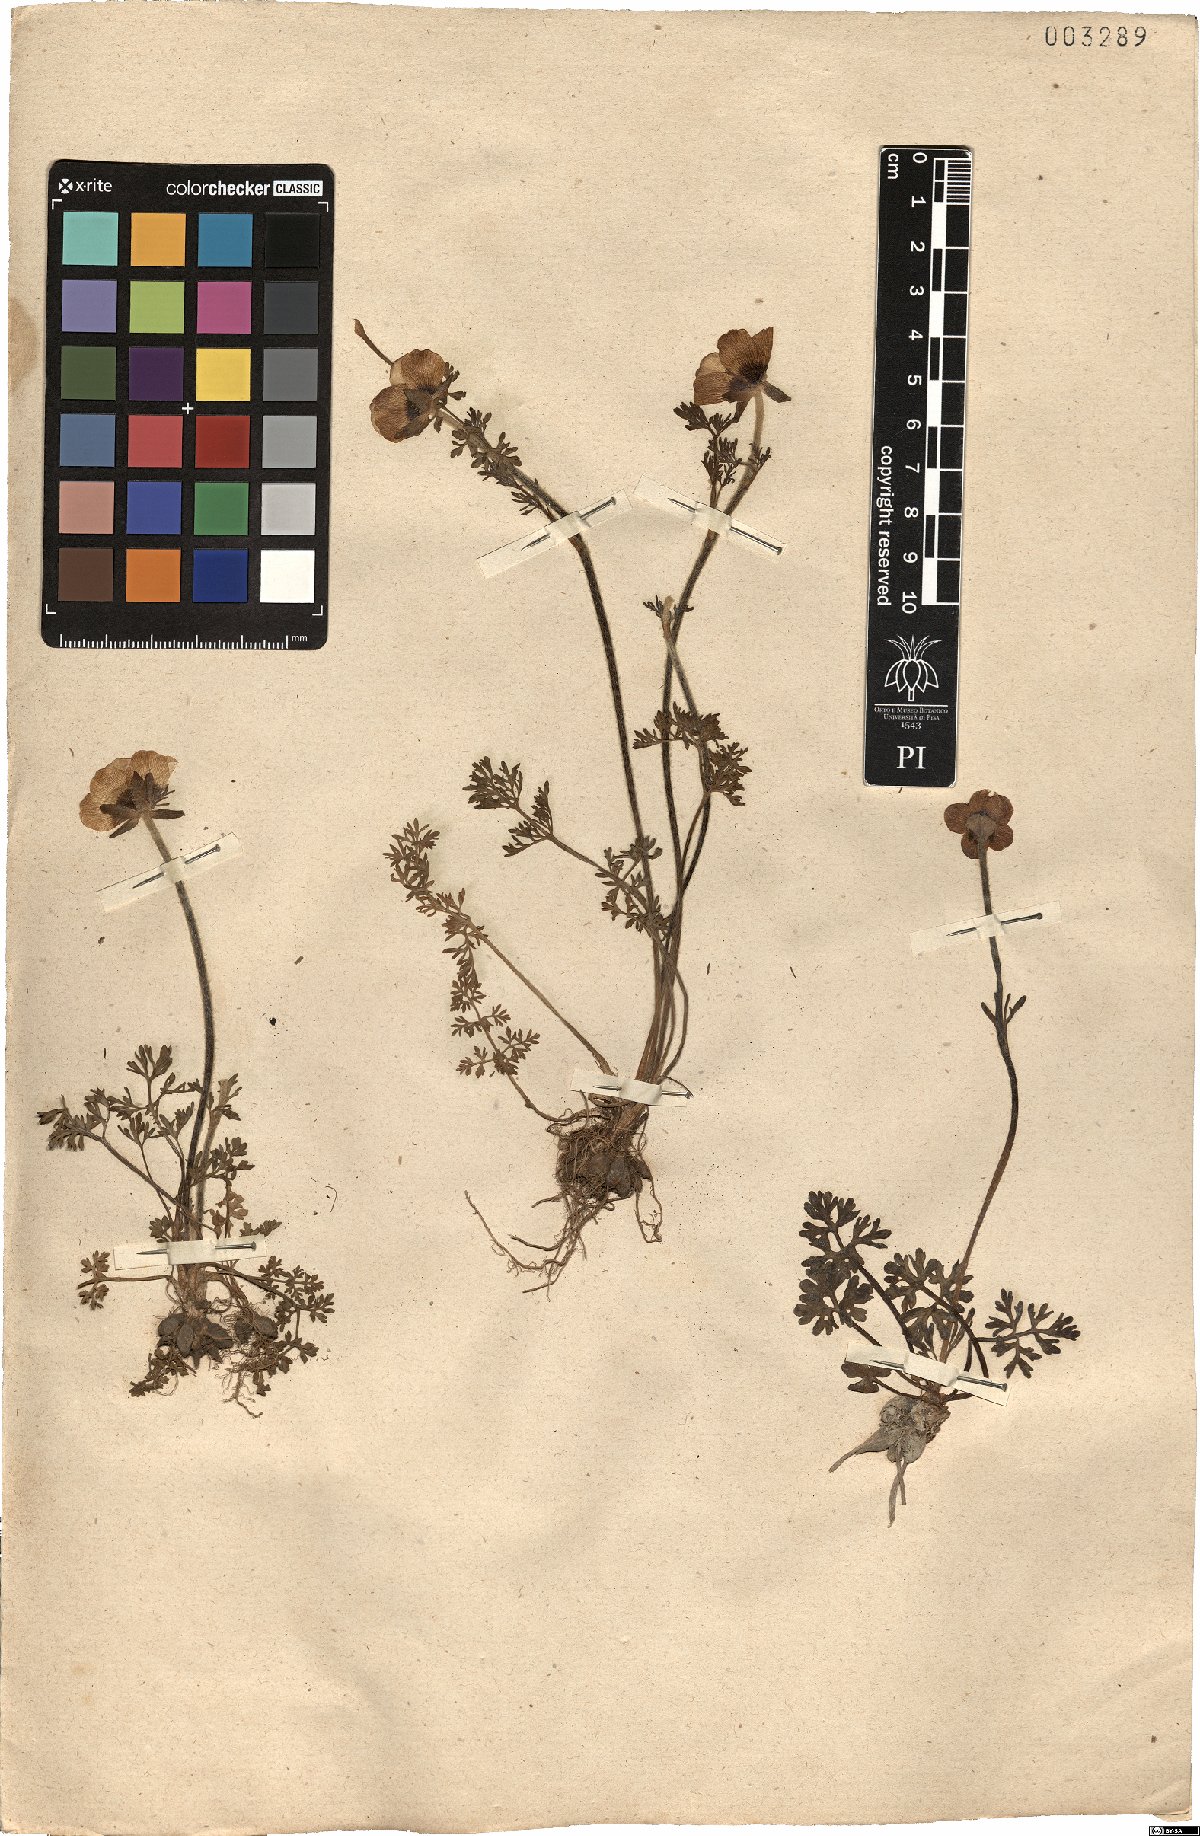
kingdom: Plantae
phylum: Tracheophyta
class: Magnoliopsida
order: Ranunculales
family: Ranunculaceae
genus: Ranunculus
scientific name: Ranunculus gracilis
